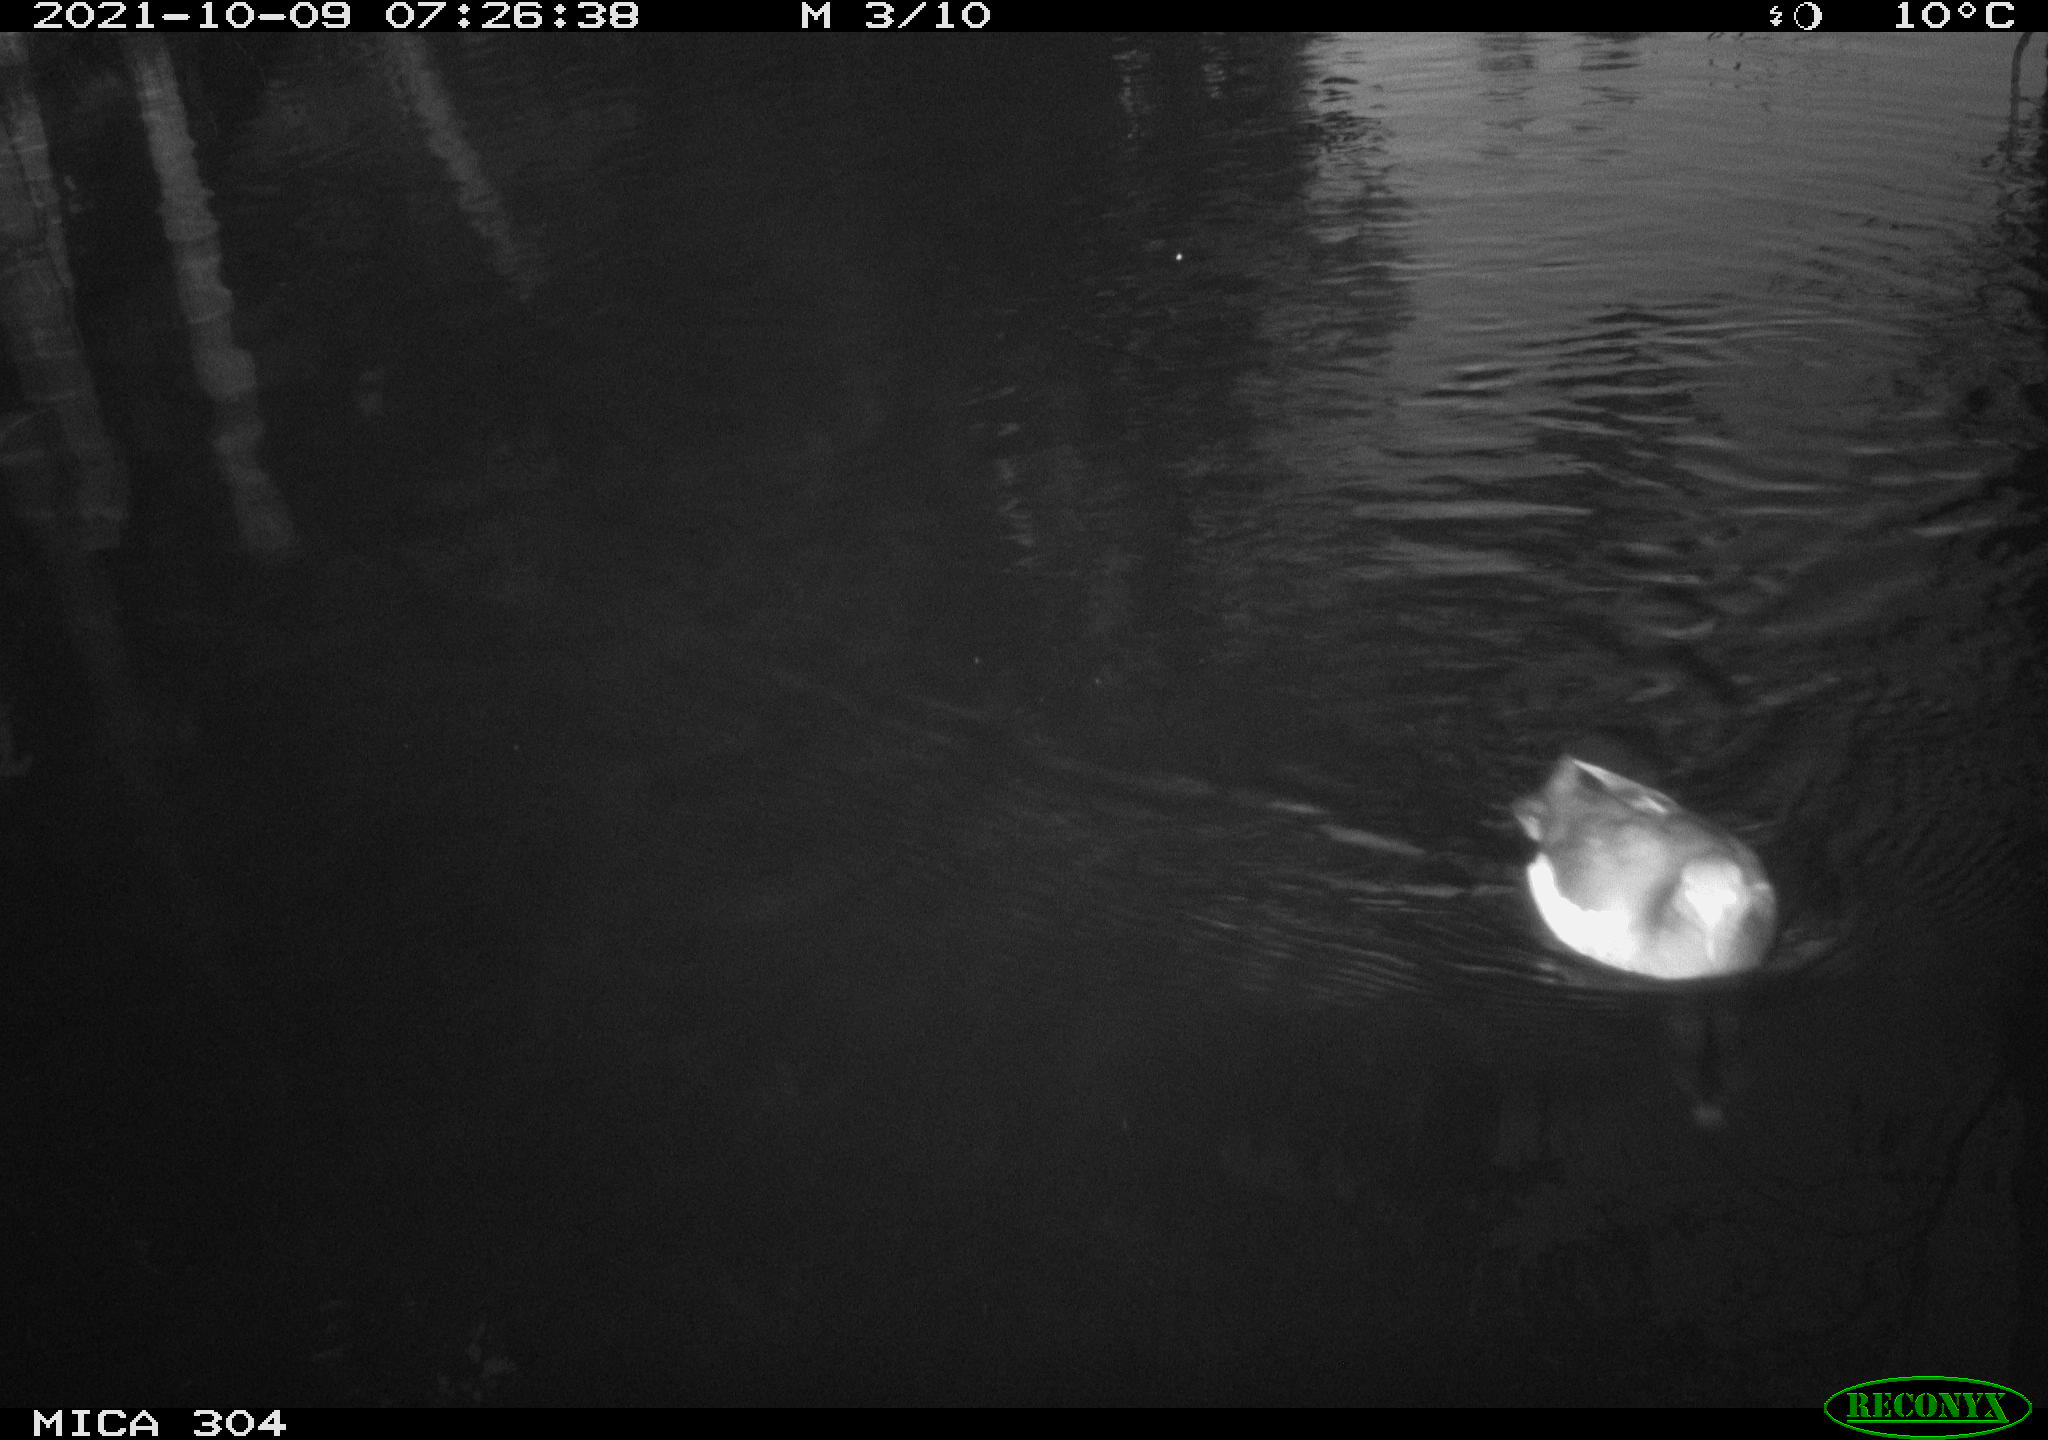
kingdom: Animalia
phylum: Chordata
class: Aves
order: Gruiformes
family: Rallidae
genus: Fulica
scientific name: Fulica atra
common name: Eurasian coot
